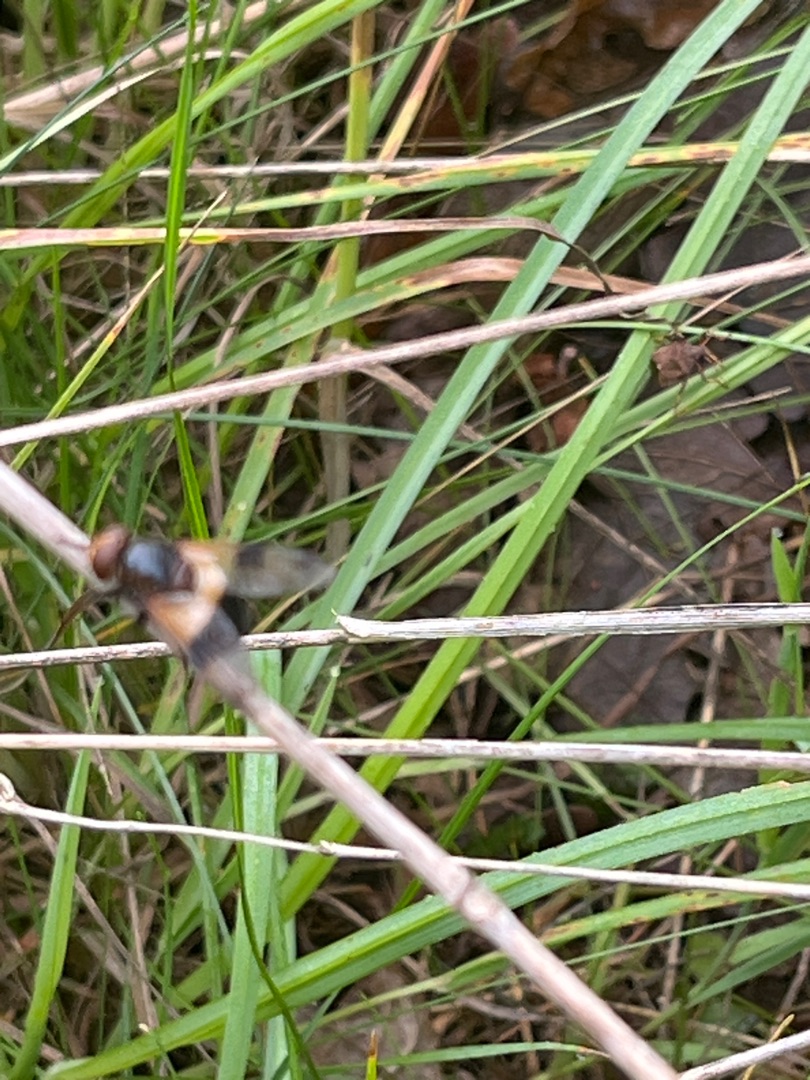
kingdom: Animalia
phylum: Arthropoda
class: Insecta
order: Diptera
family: Syrphidae
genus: Volucella
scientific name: Volucella pellucens
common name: Hvidbåndet humlesvirreflue
